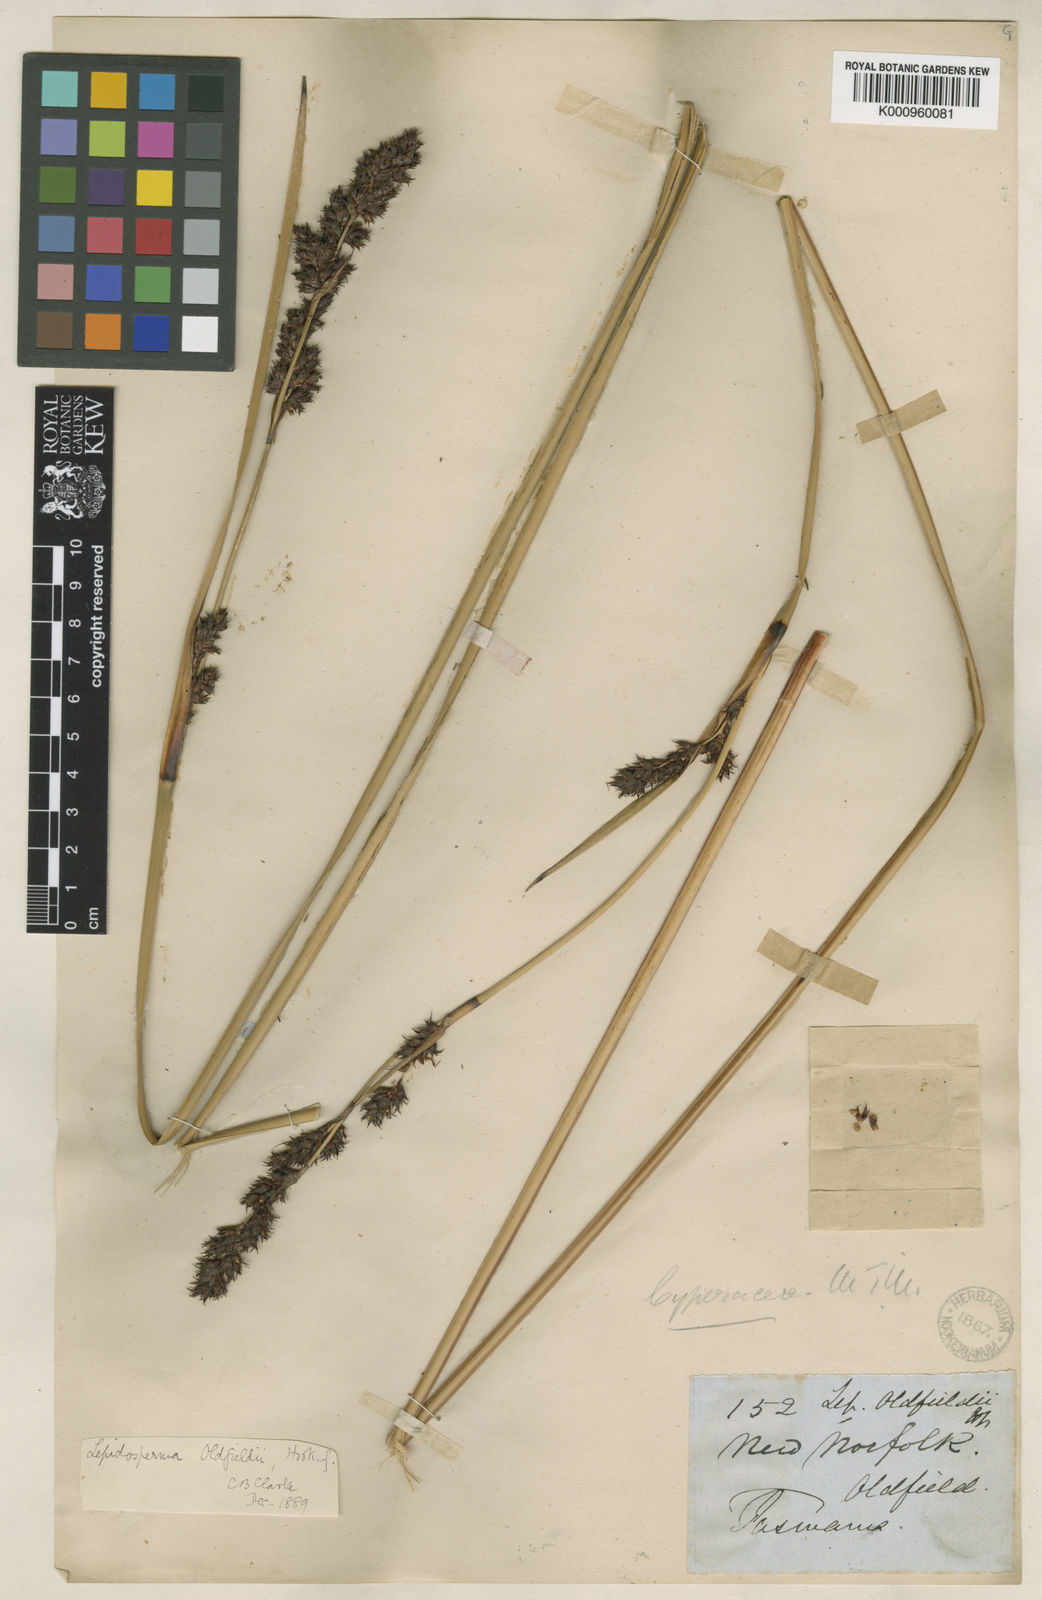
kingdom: Plantae
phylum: Tracheophyta
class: Liliopsida
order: Poales
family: Cyperaceae
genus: Lepidosperma
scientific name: Lepidosperma oldfieldii
